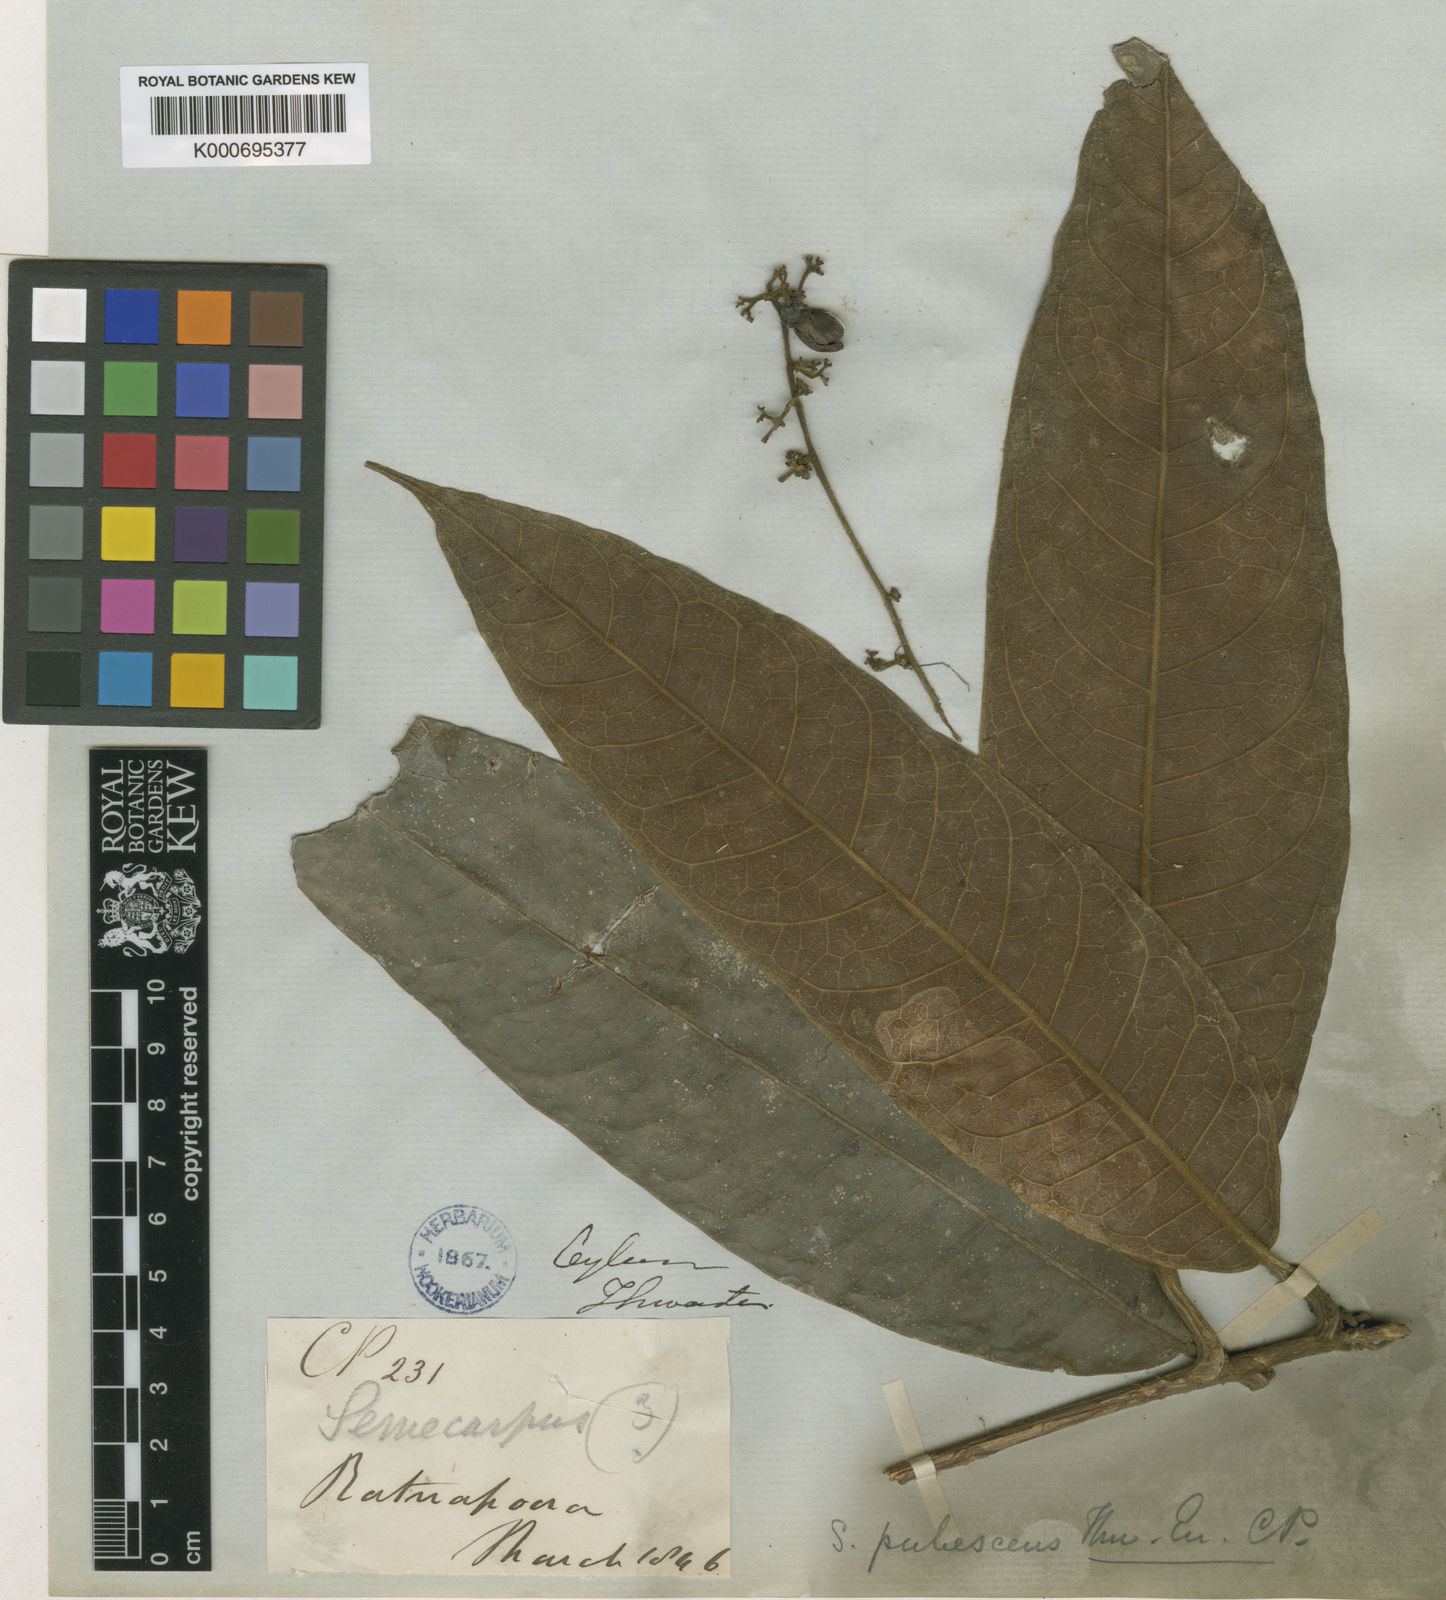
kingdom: Plantae
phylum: Tracheophyta
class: Magnoliopsida
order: Sapindales
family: Anacardiaceae
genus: Semecarpus
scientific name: Semecarpus pubescens
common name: Velvet badulla
